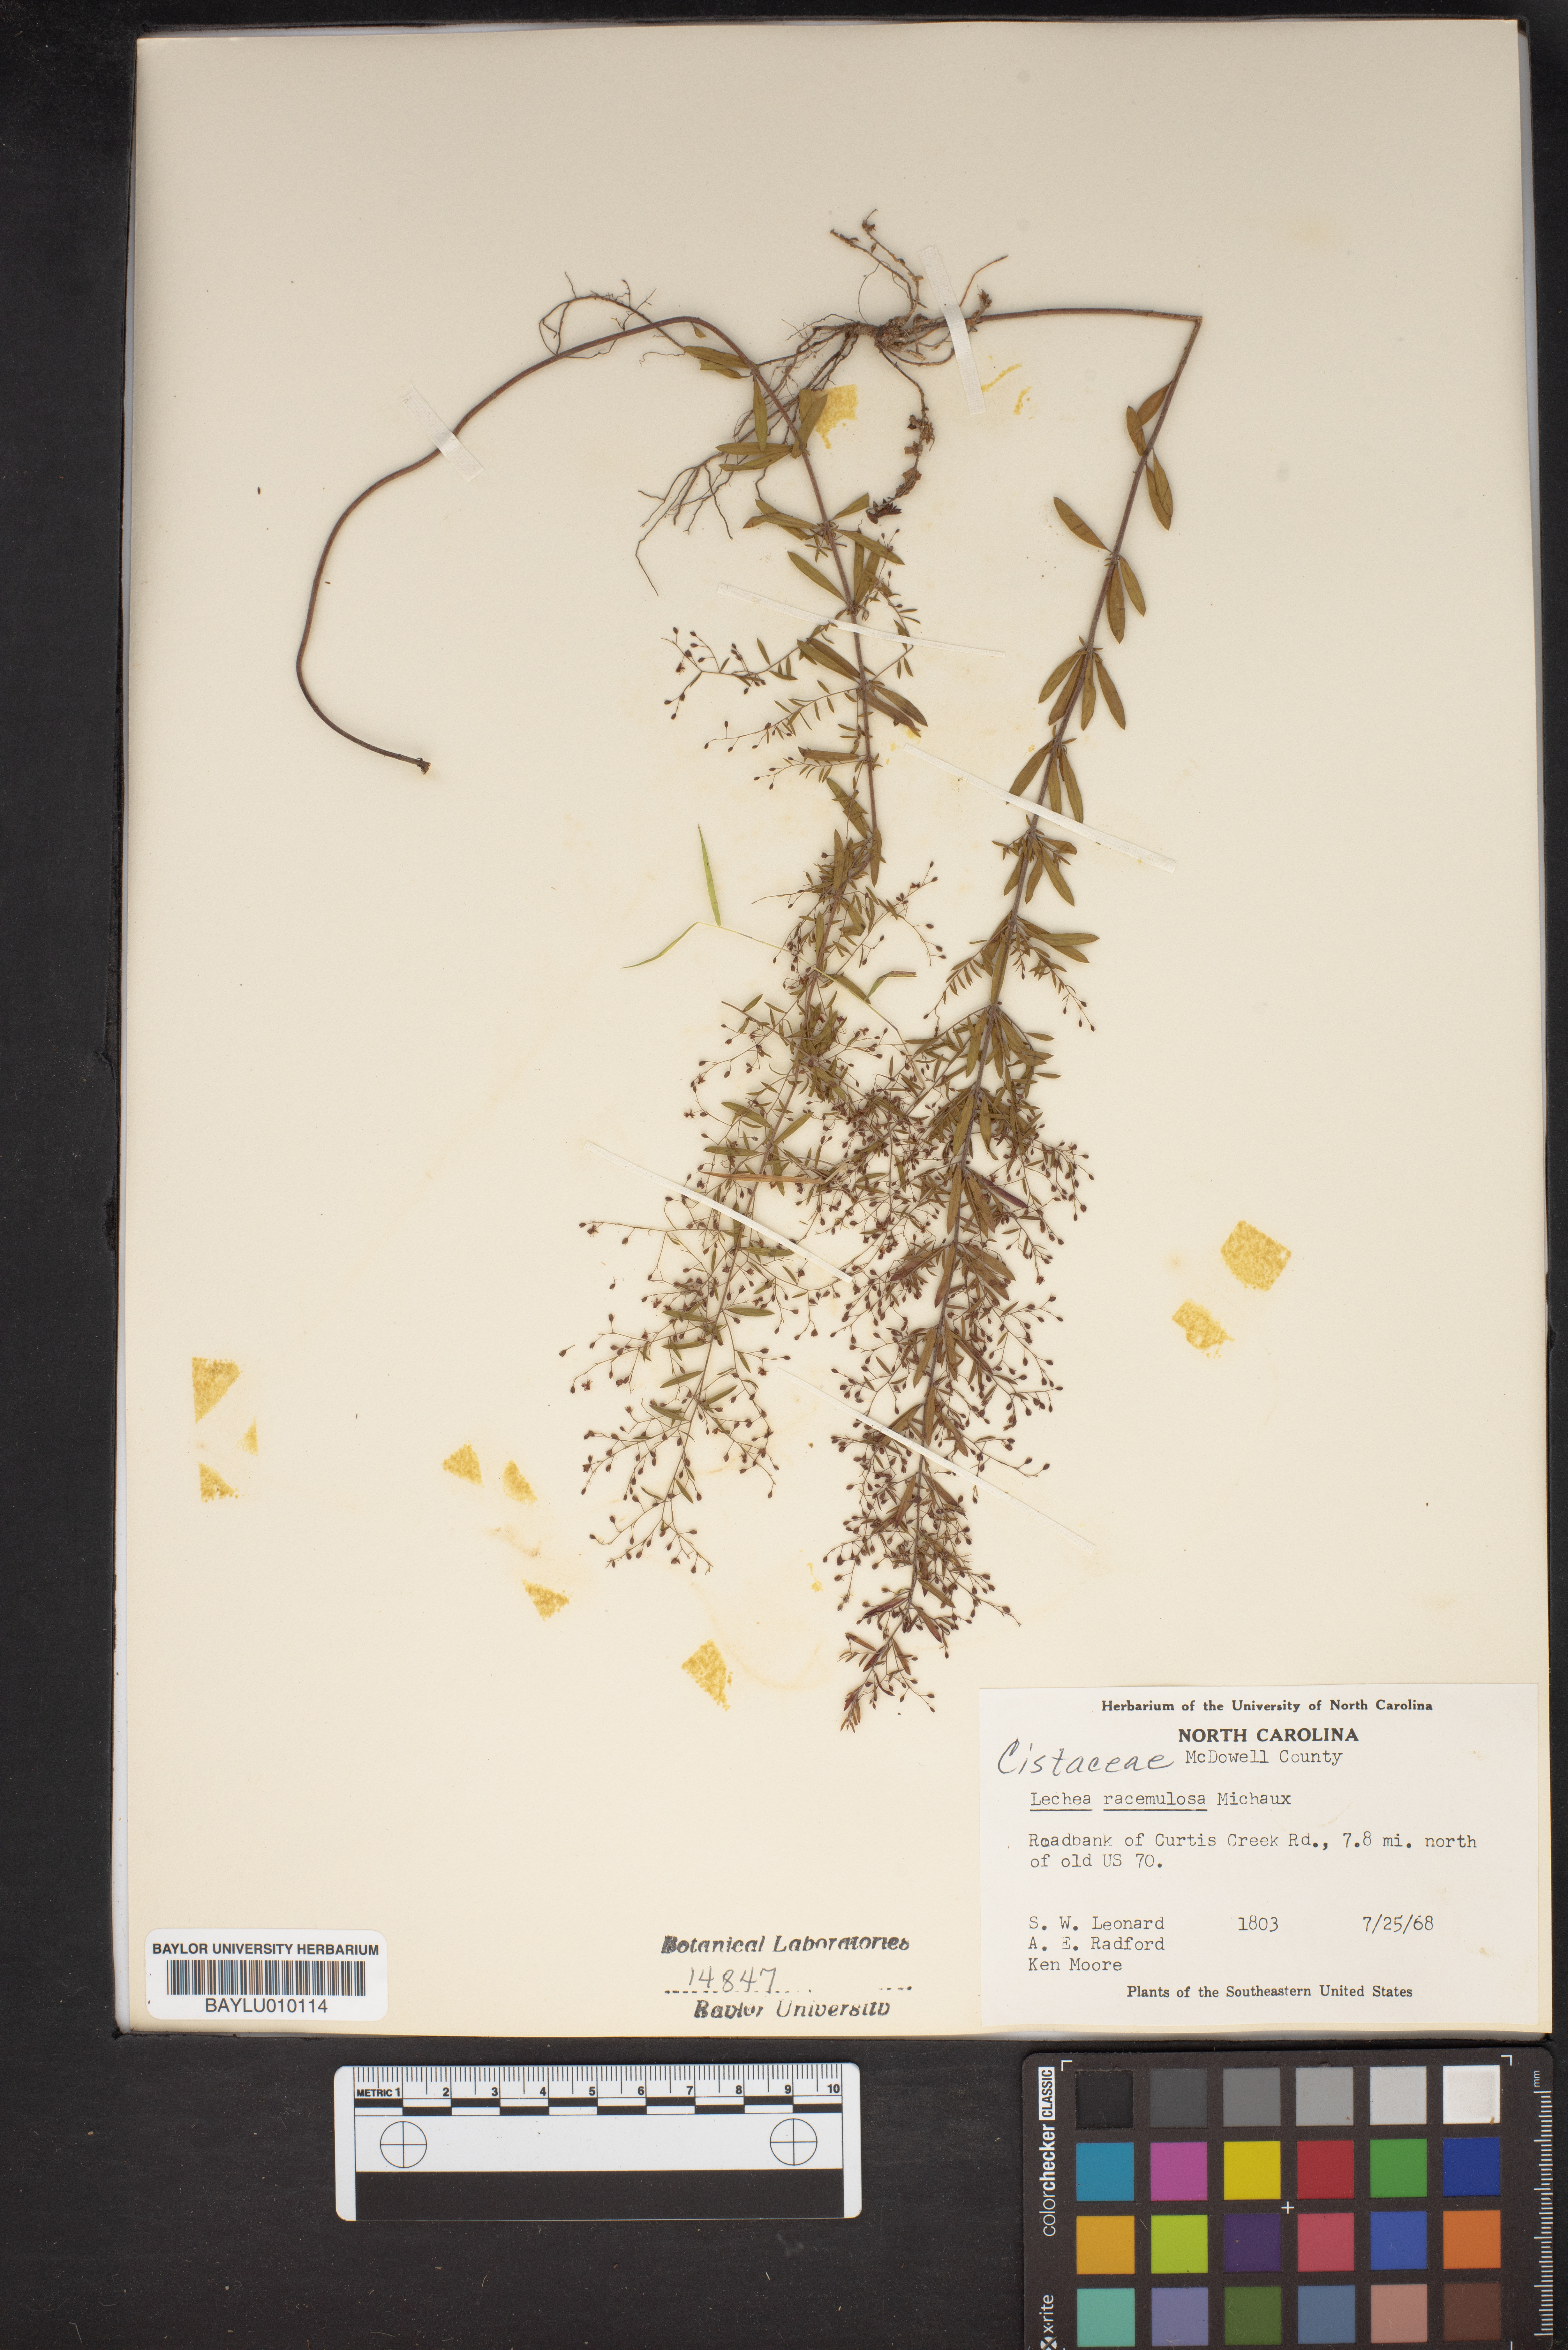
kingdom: Plantae
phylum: Tracheophyta
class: Magnoliopsida
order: Malvales
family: Cistaceae
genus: Lechea
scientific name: Lechea racemulosa
